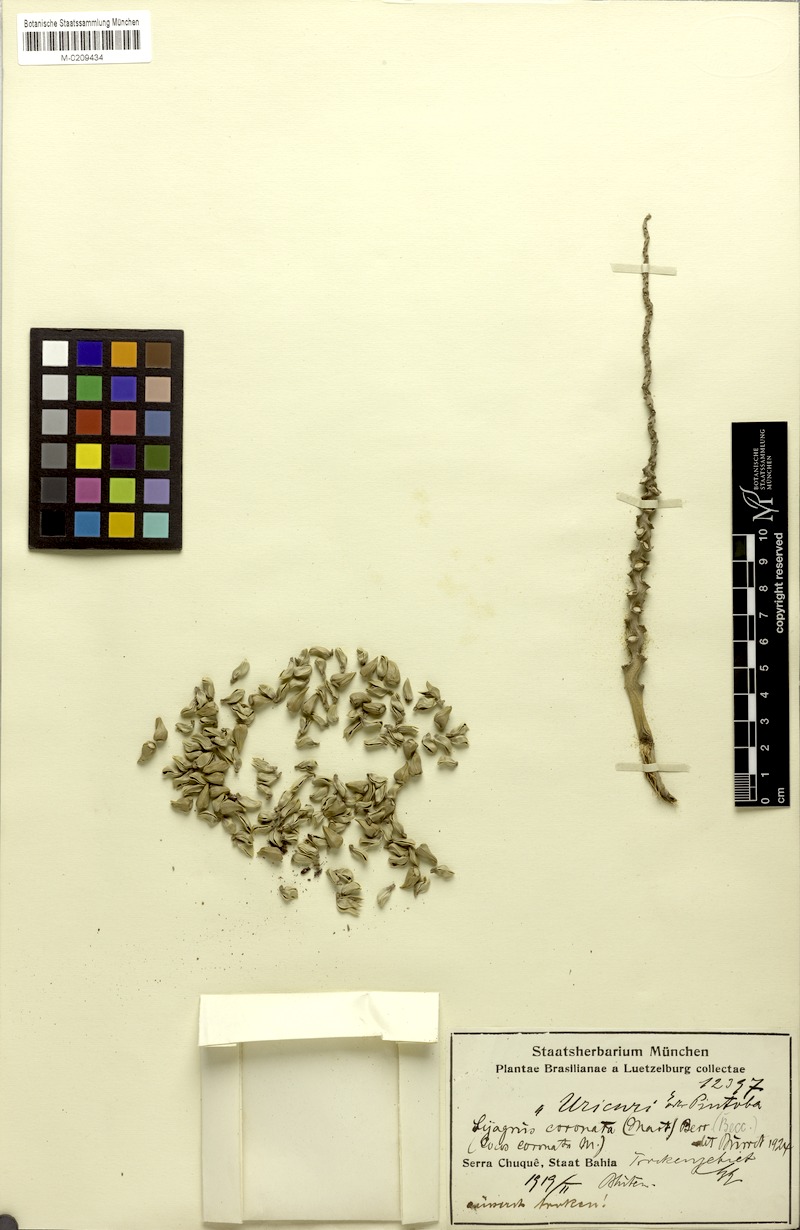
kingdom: Plantae
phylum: Tracheophyta
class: Liliopsida
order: Arecales
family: Arecaceae
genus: Syagrus
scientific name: Syagrus coronata
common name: Licuri palm
